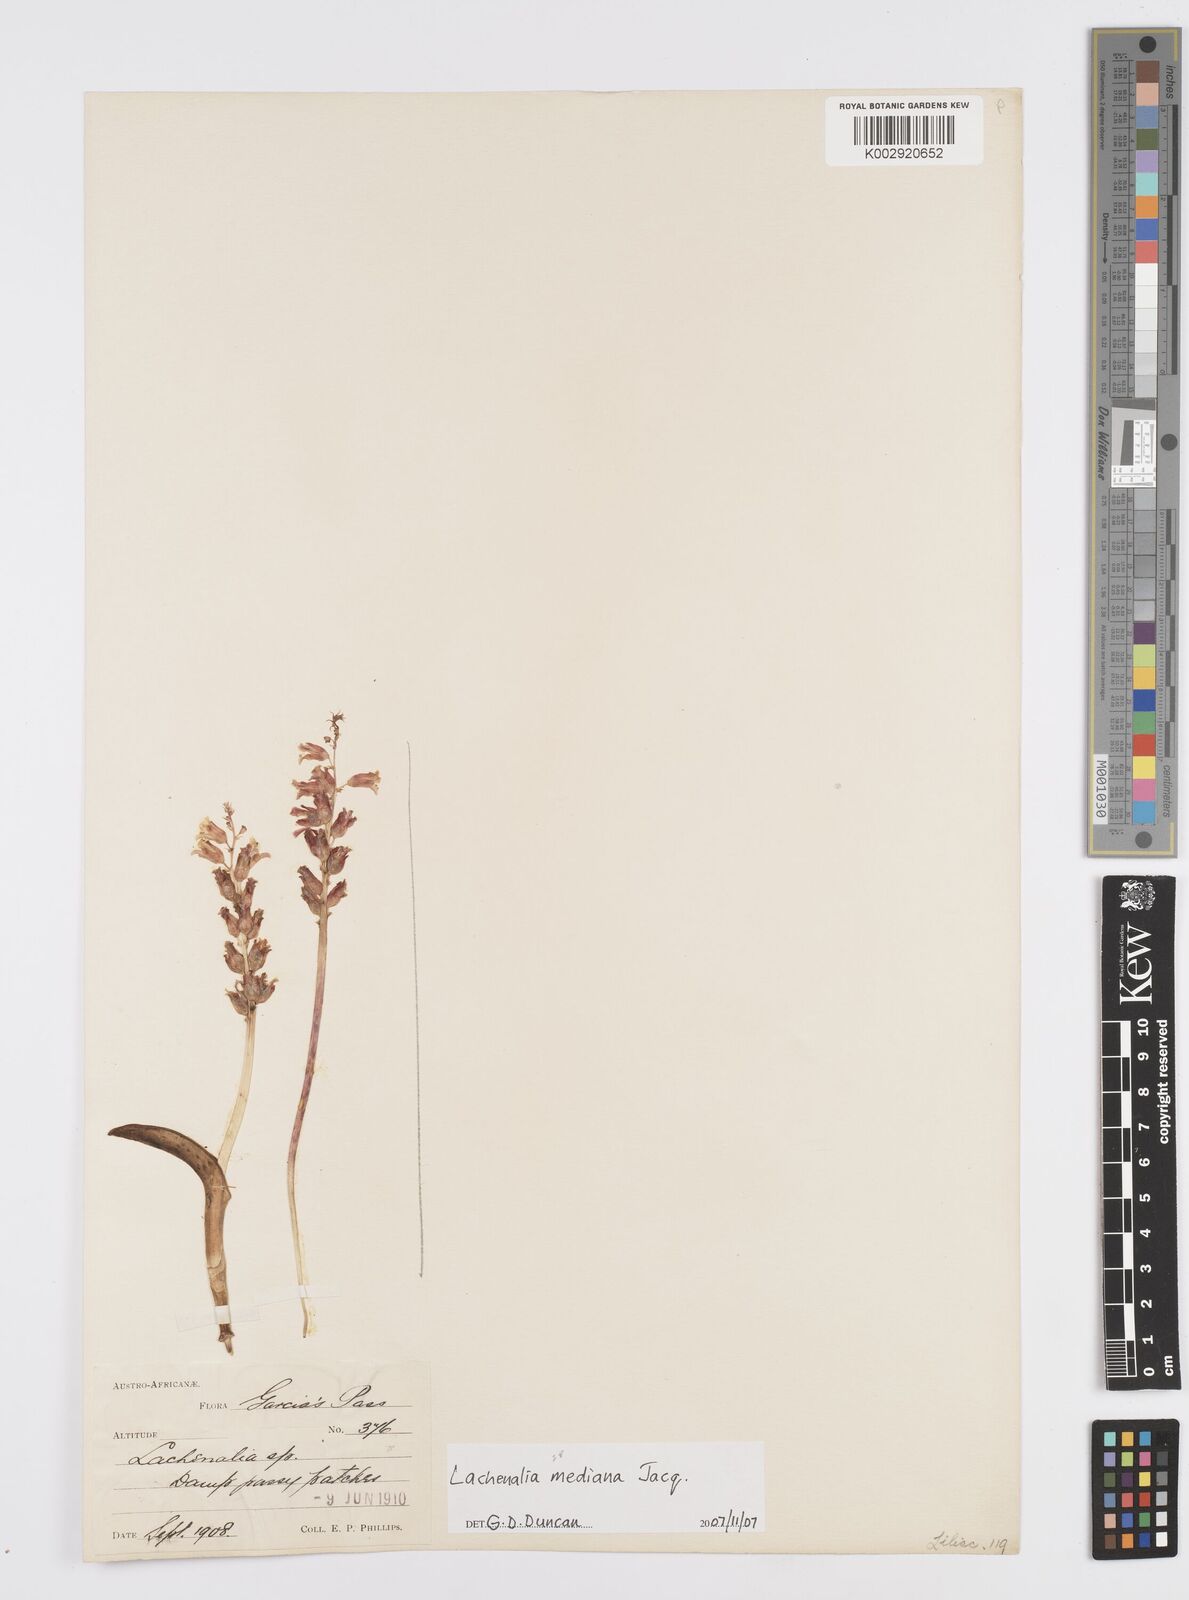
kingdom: Plantae
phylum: Tracheophyta
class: Liliopsida
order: Asparagales
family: Asparagaceae
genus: Lachenalia
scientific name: Lachenalia mediana
